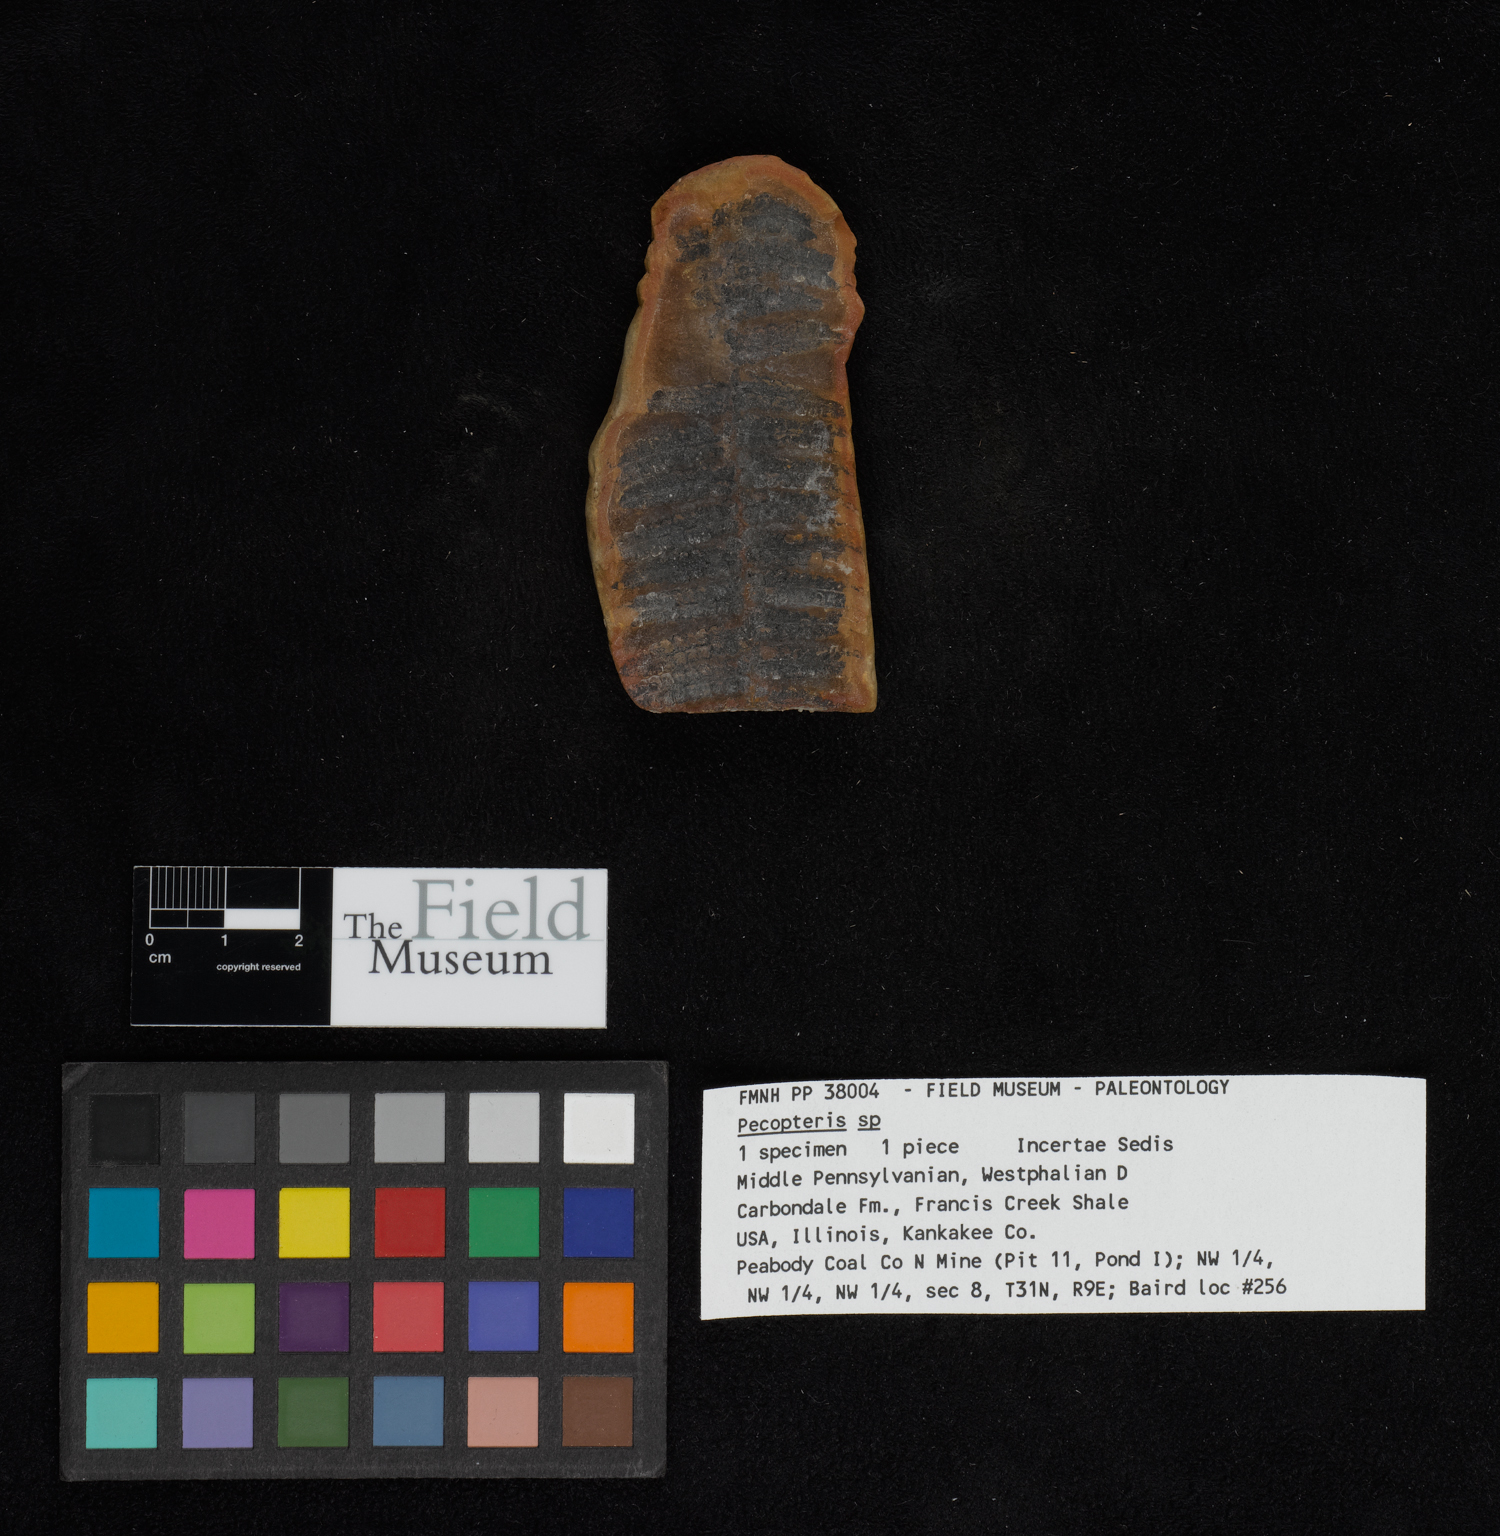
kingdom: Plantae
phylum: Tracheophyta
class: Polypodiopsida
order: Marattiales
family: Asterothecaceae
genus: Pecopteris
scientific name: Pecopteris
